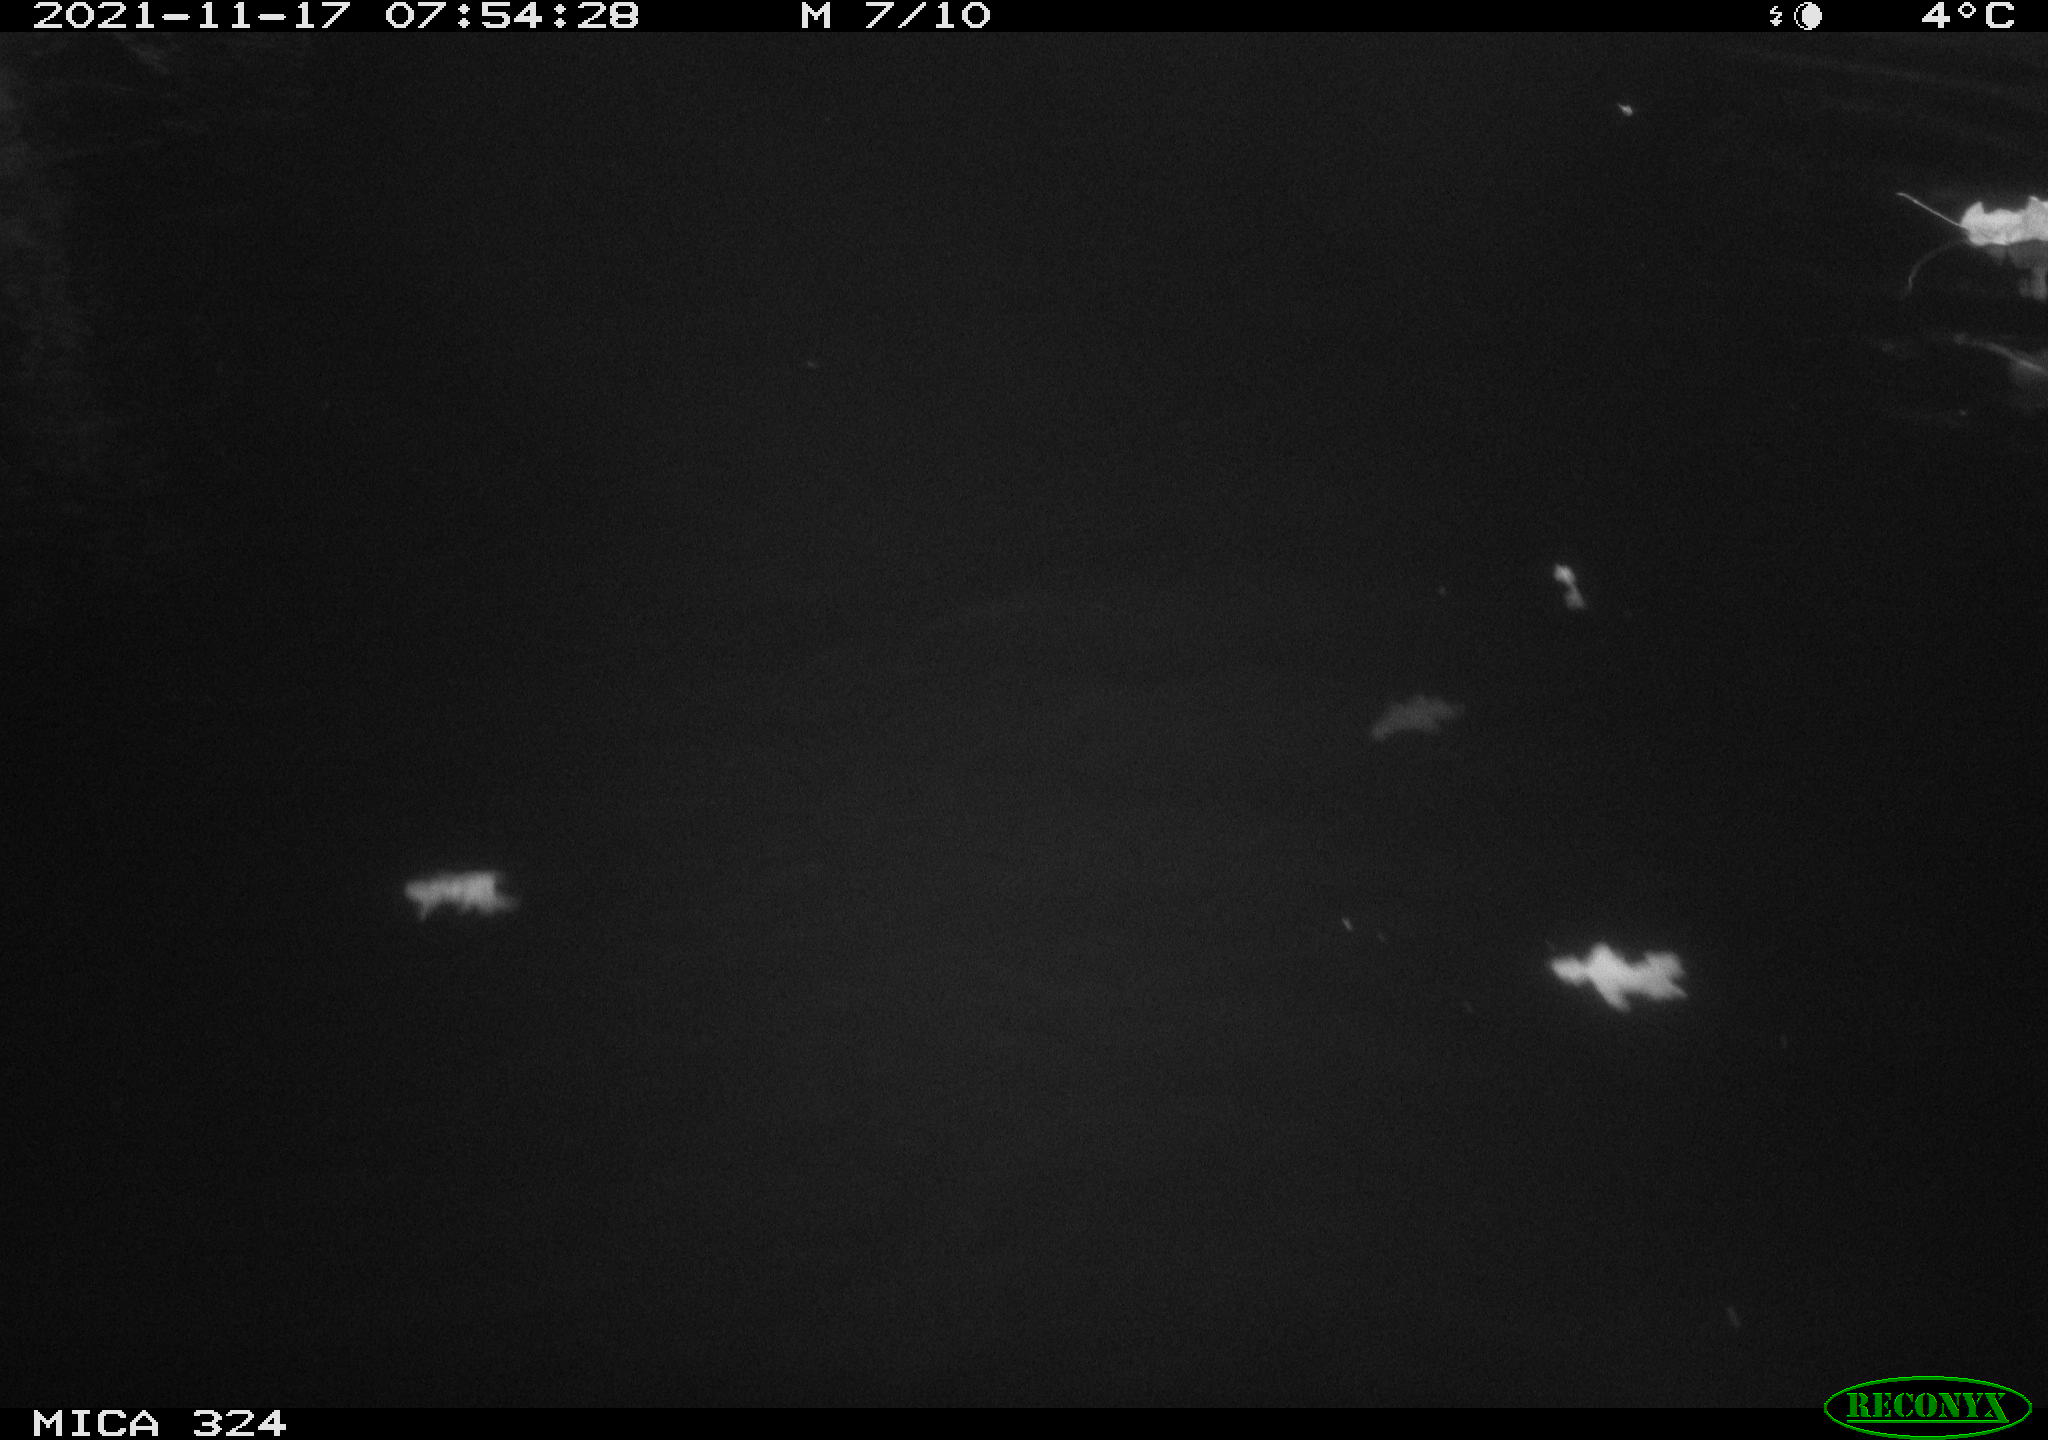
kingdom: Animalia
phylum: Chordata
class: Mammalia
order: Rodentia
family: Cricetidae
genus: Ondatra
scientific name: Ondatra zibethicus
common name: Muskrat
